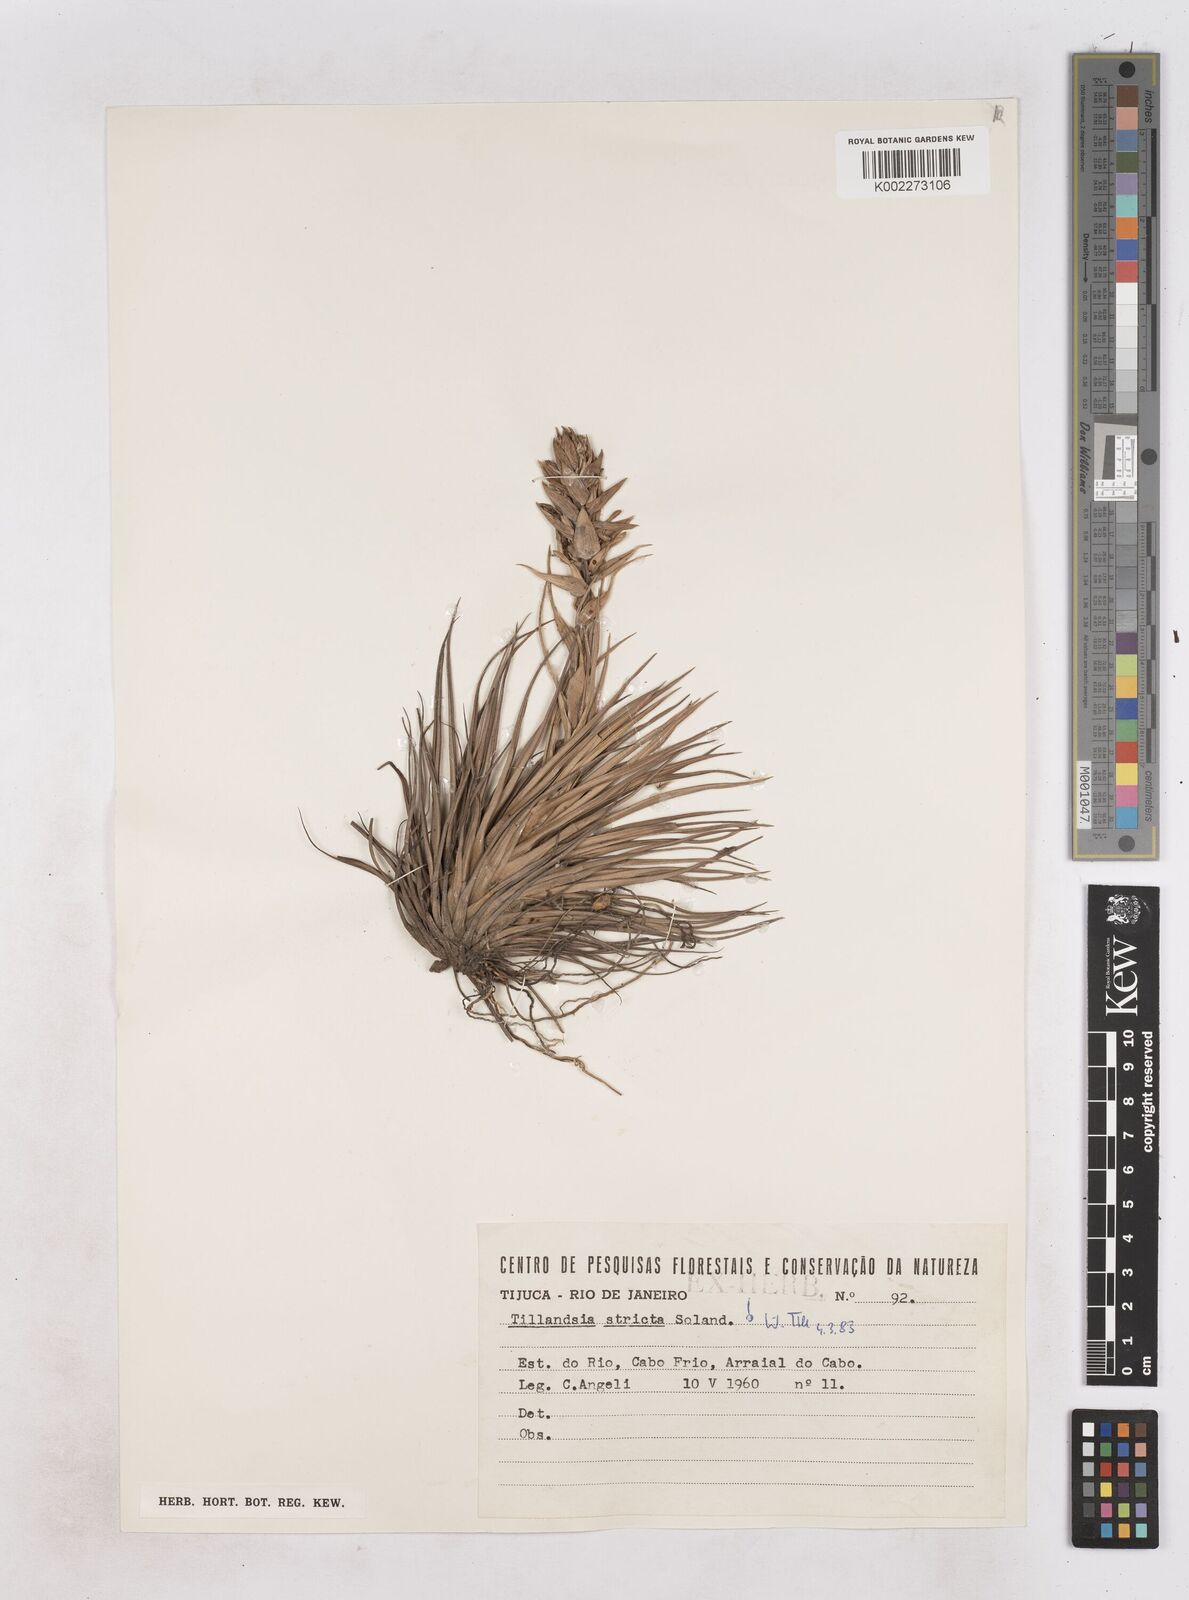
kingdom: Plantae
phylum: Tracheophyta
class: Liliopsida
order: Poales
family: Bromeliaceae
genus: Tillandsia
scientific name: Tillandsia stricta
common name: Airplant
